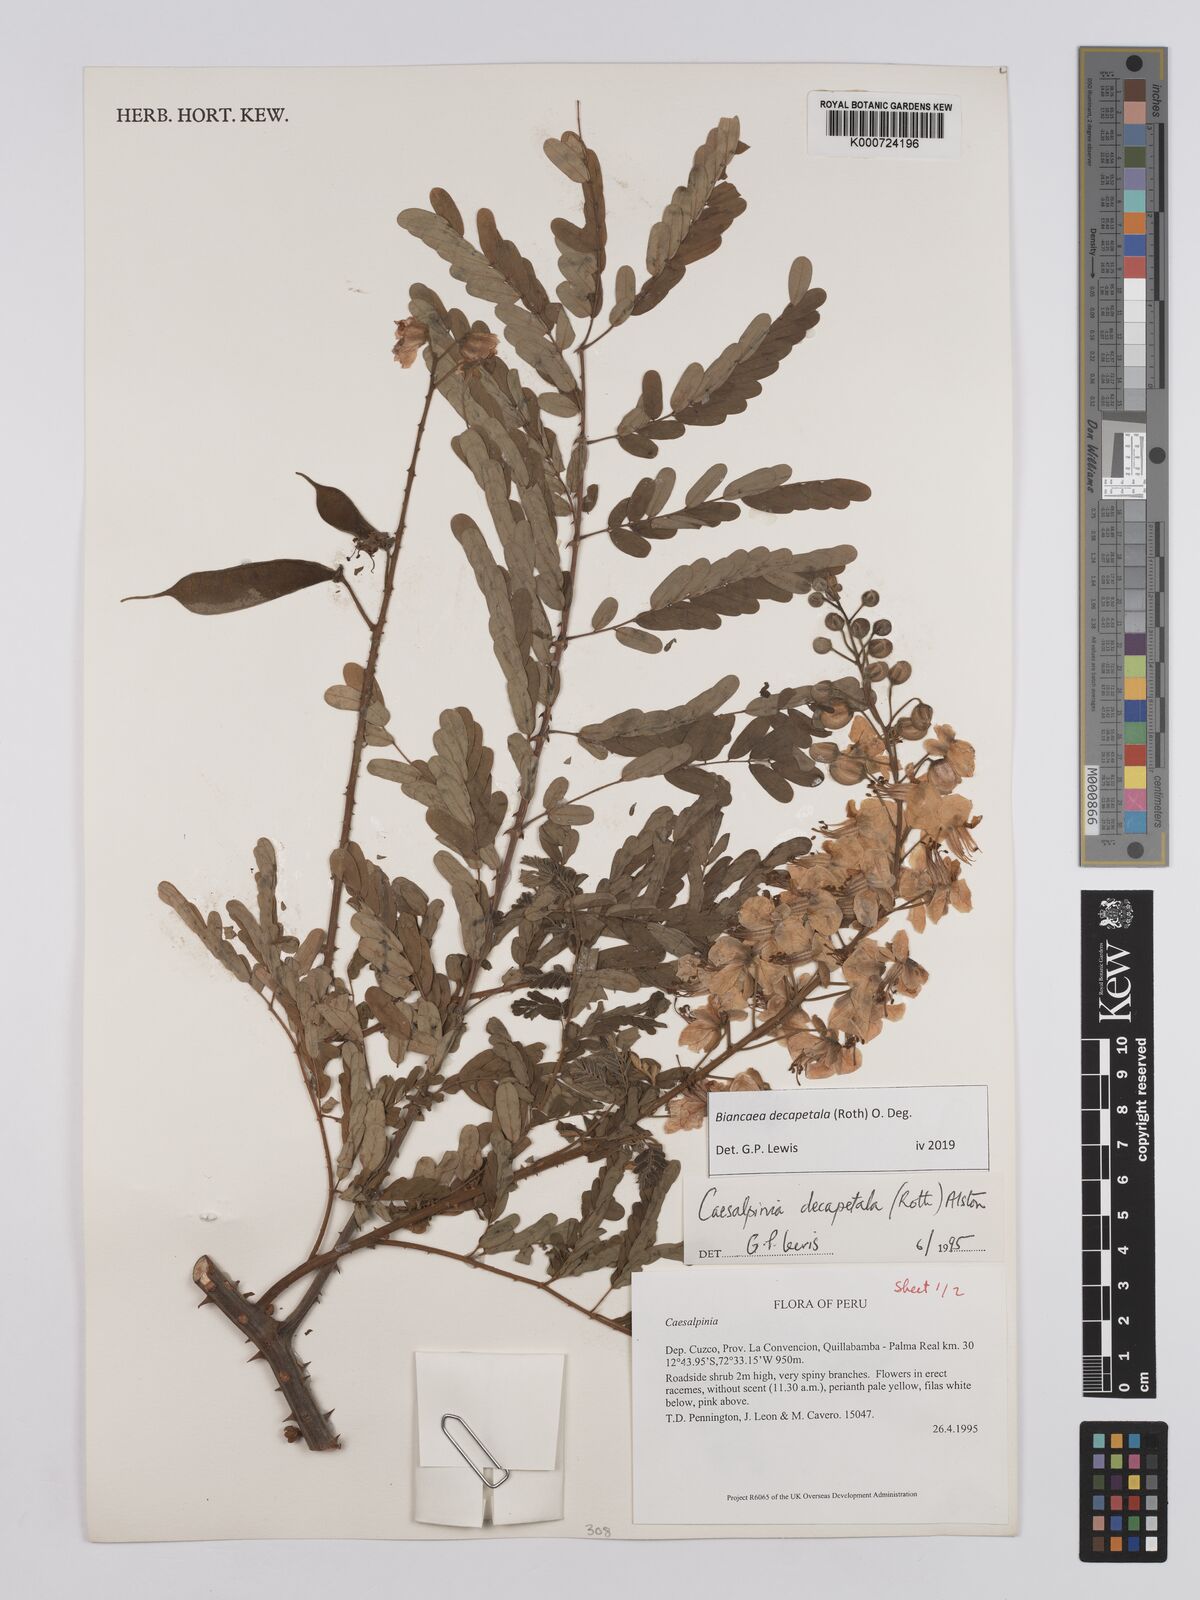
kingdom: Plantae
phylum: Tracheophyta
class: Magnoliopsida
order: Fabales
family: Fabaceae
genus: Biancaea
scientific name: Biancaea decapetala
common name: Cat's claw
